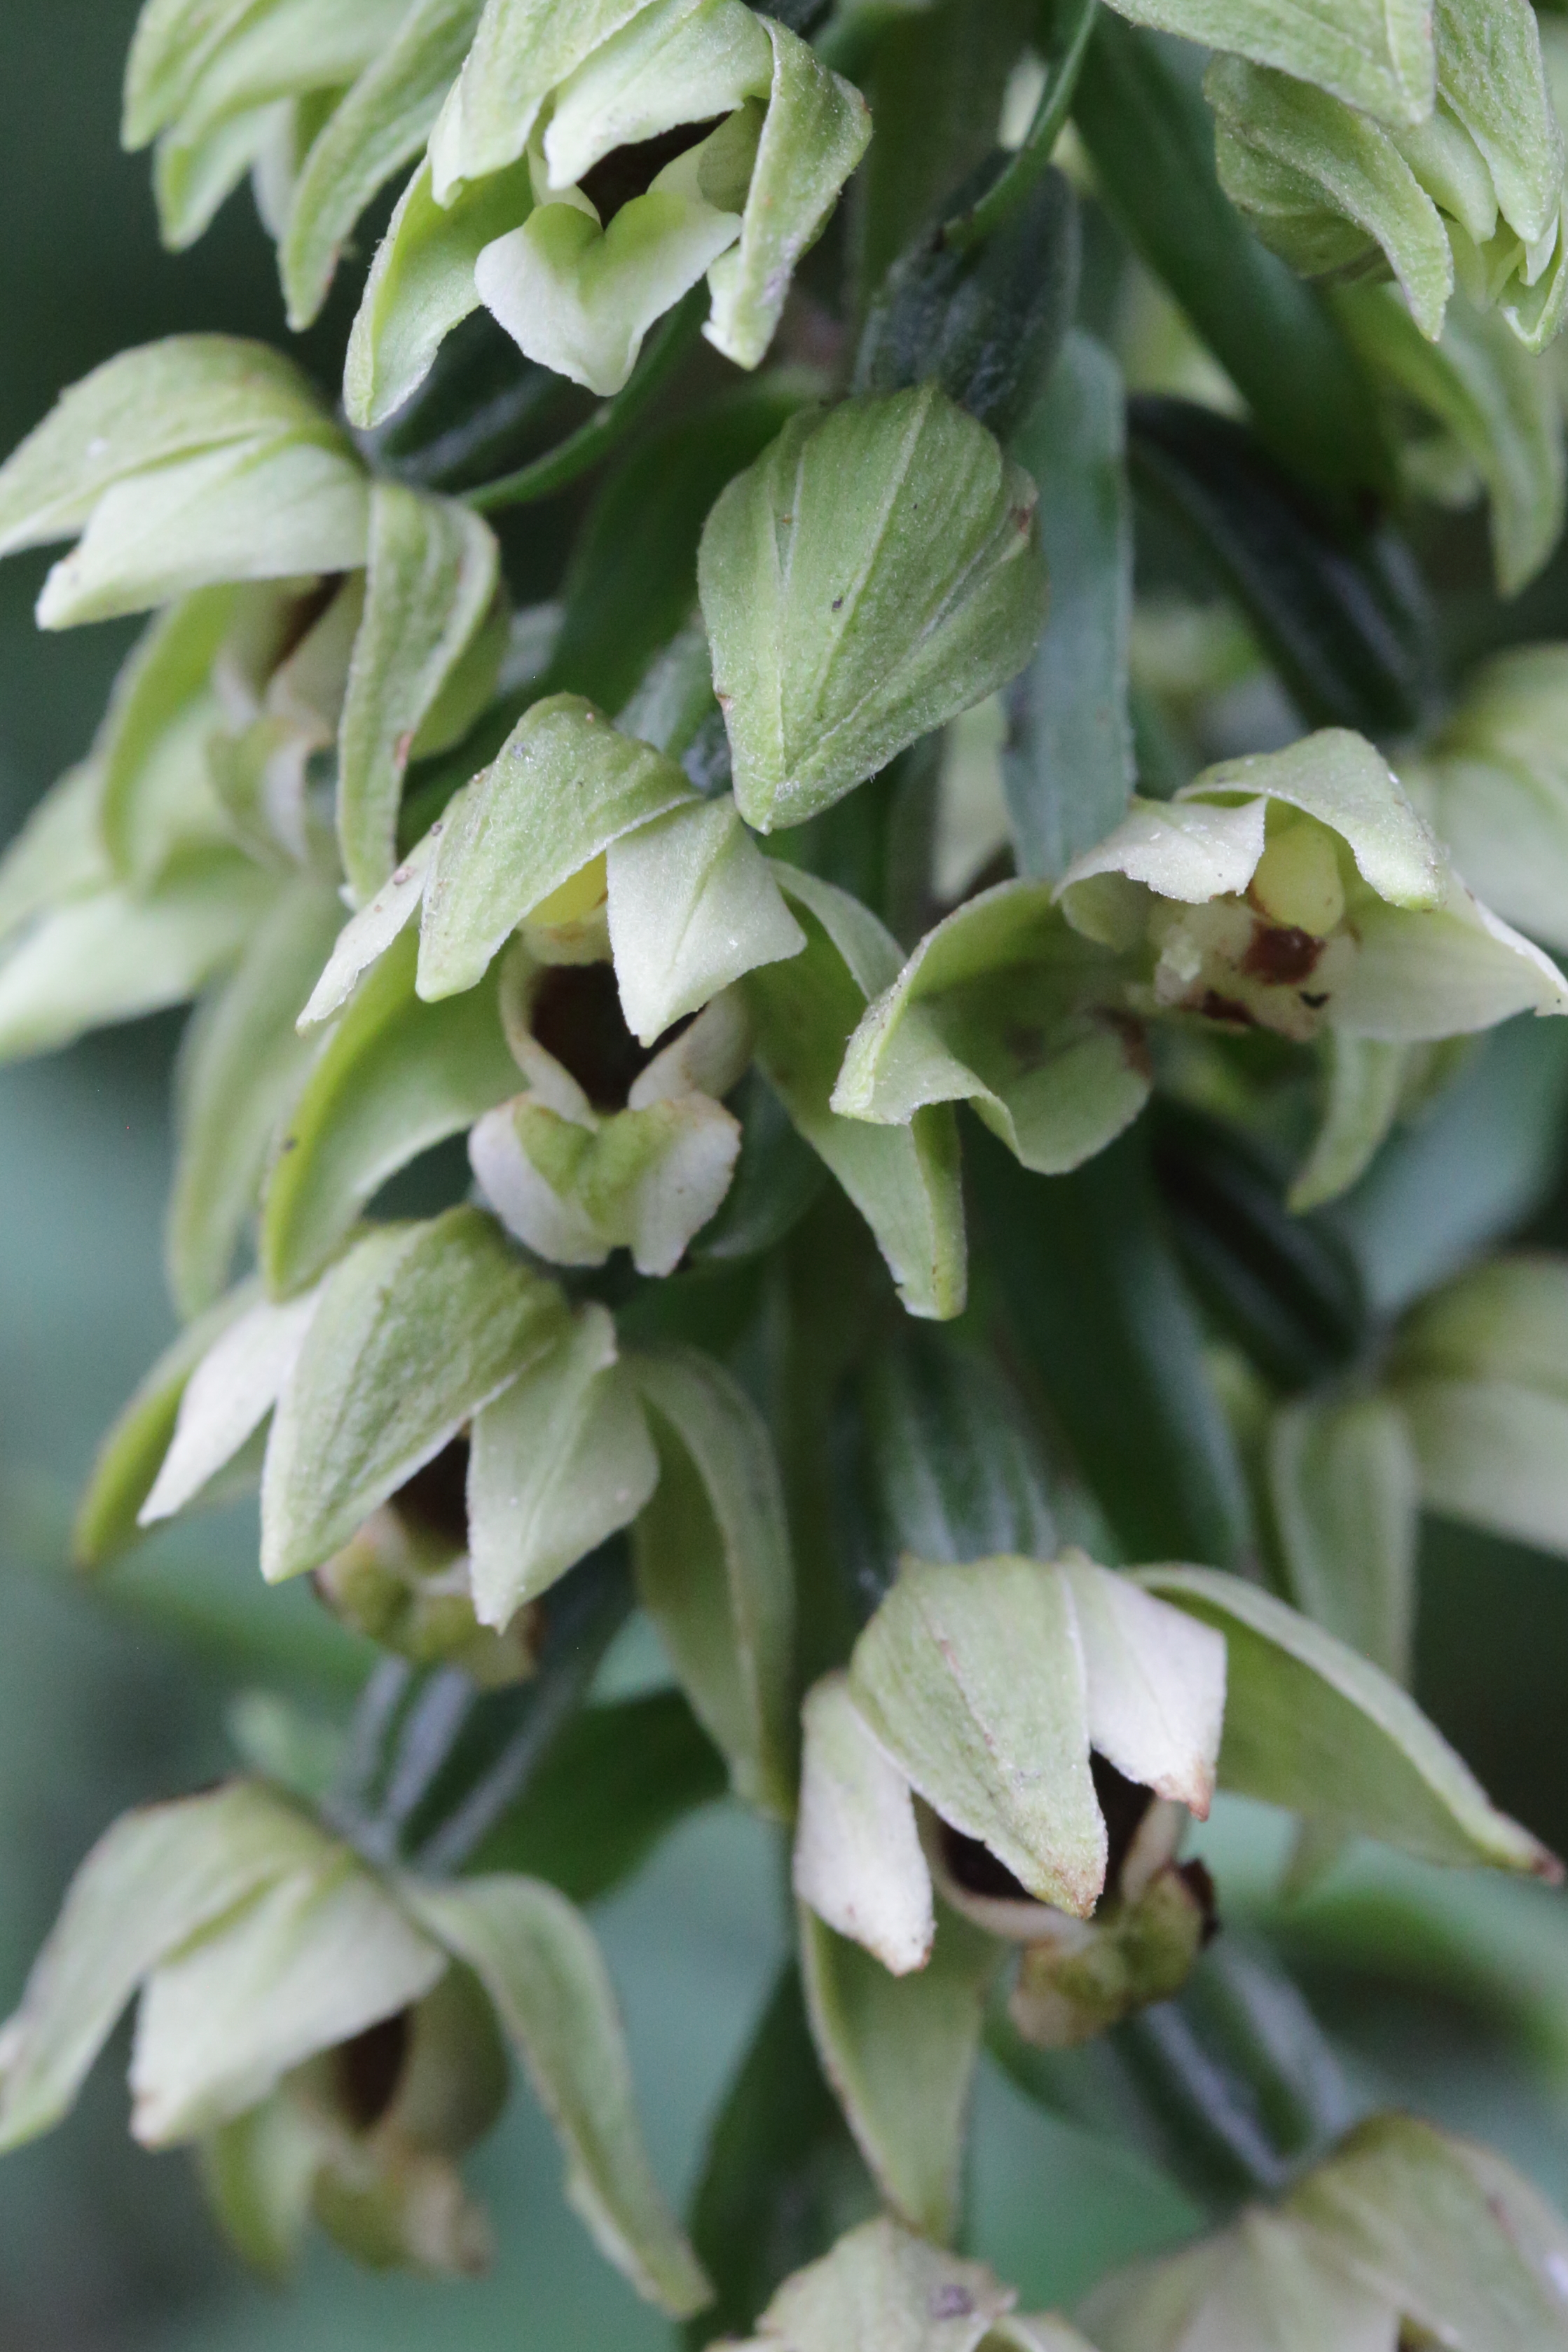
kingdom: Plantae
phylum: Tracheophyta
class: Liliopsida
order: Asparagales
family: Orchidaceae
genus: Epipactis
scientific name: Epipactis helleborine
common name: Skov-hullæbe
